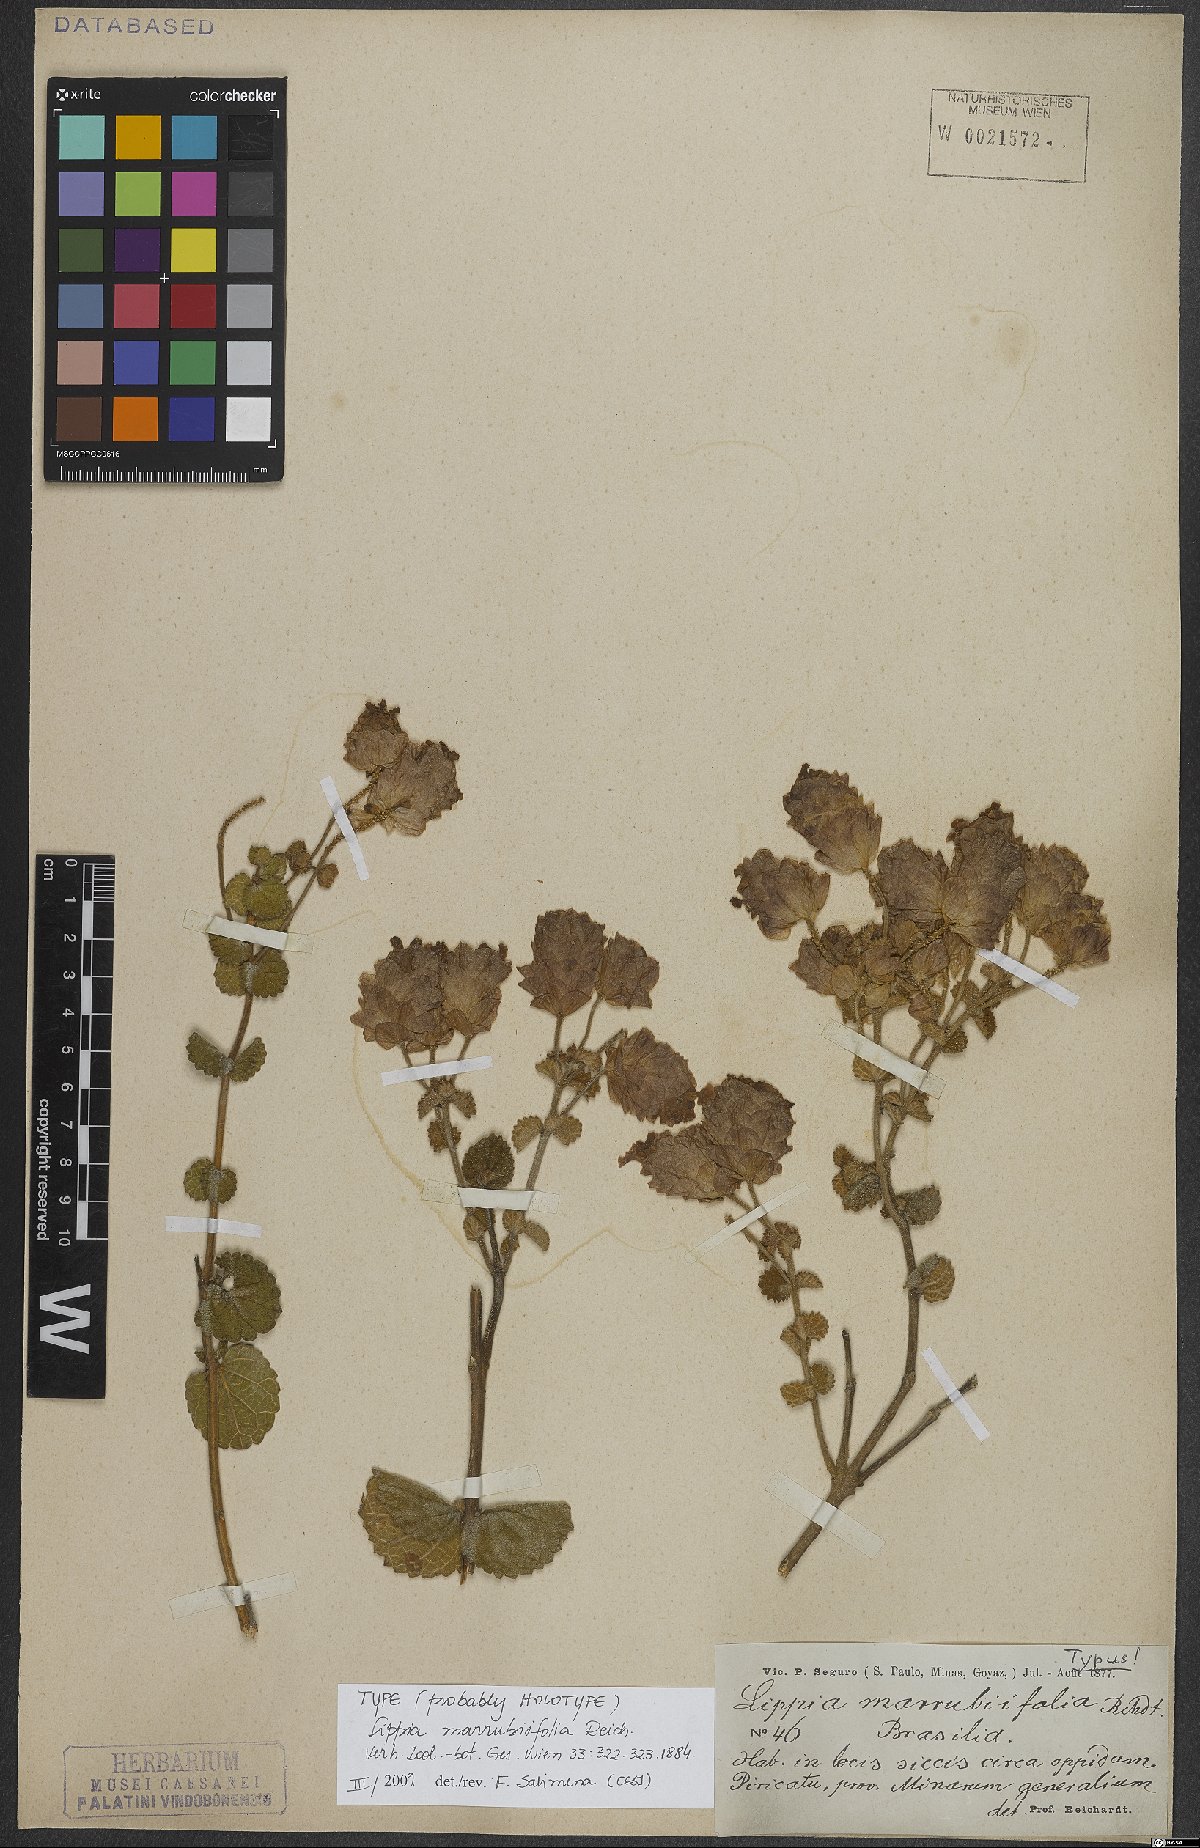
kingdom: Plantae
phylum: Tracheophyta
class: Magnoliopsida
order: Lamiales
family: Verbenaceae
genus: Lippia
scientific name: Lippia marrubiifolia
